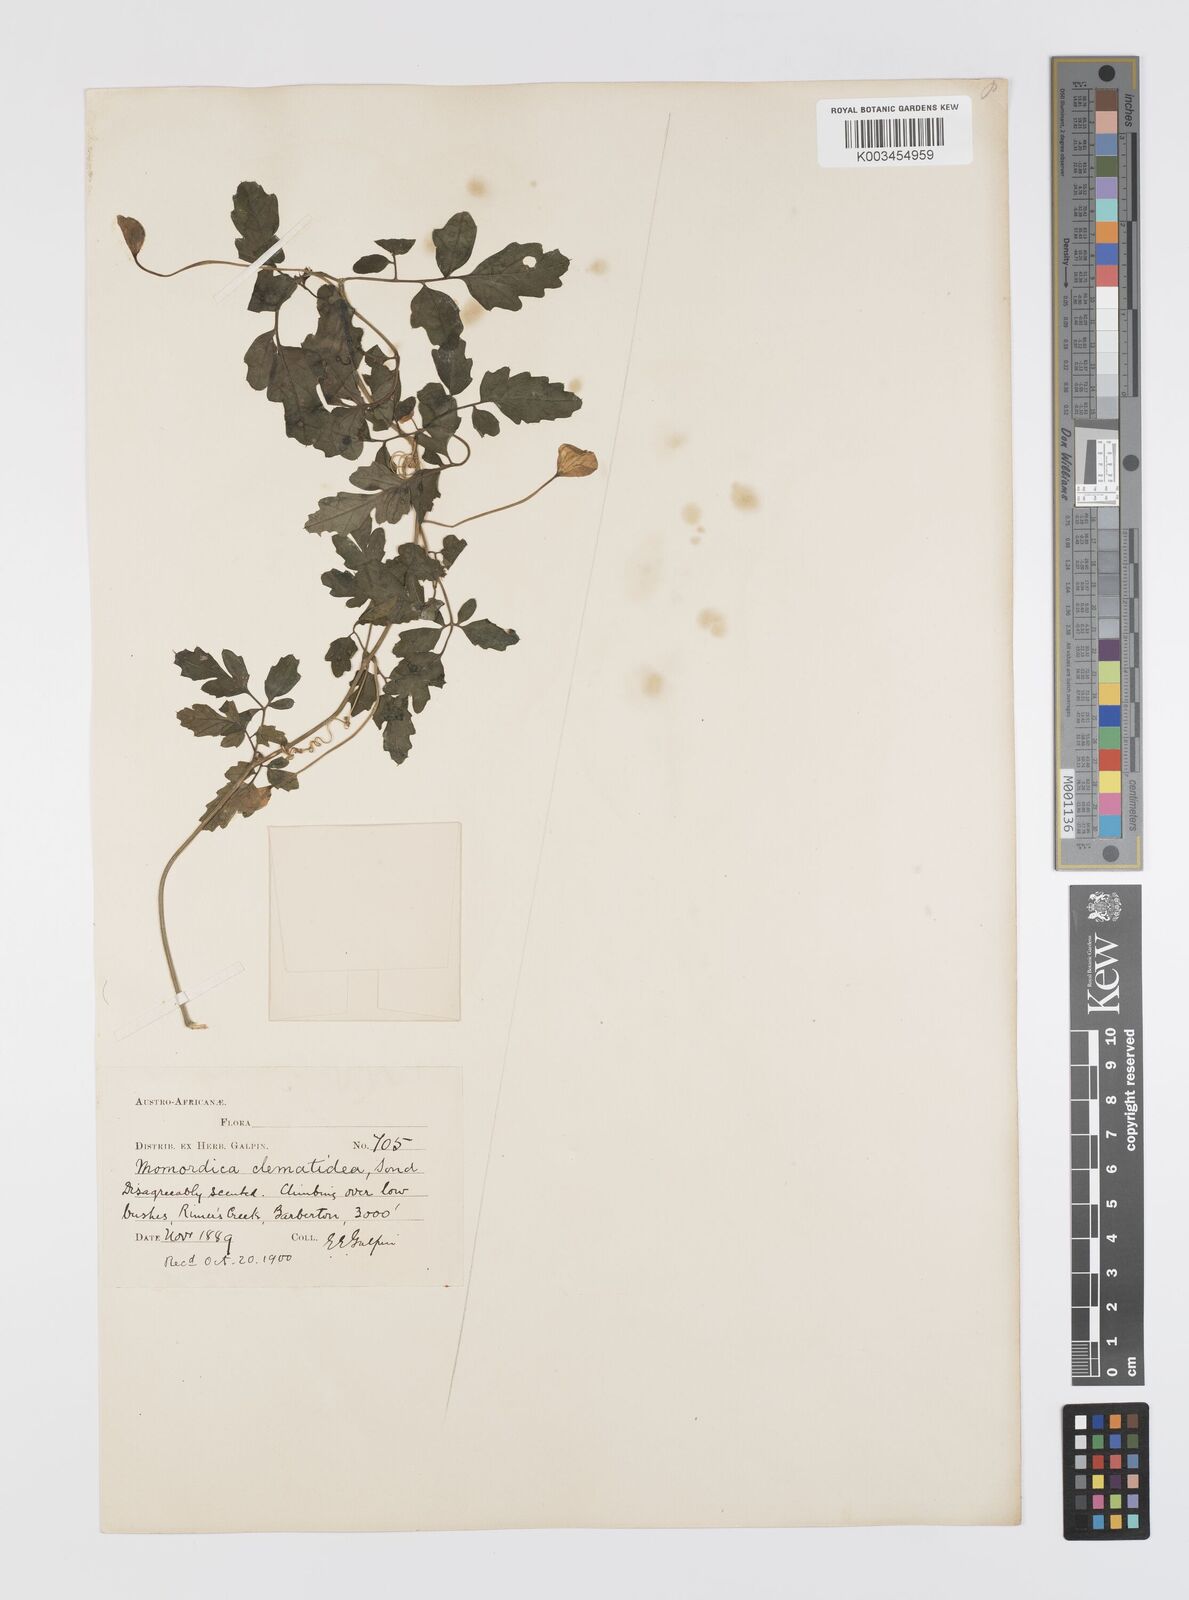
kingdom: Plantae
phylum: Tracheophyta
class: Magnoliopsida
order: Cucurbitales
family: Cucurbitaceae
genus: Momordica
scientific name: Momordica cardiospermoides
